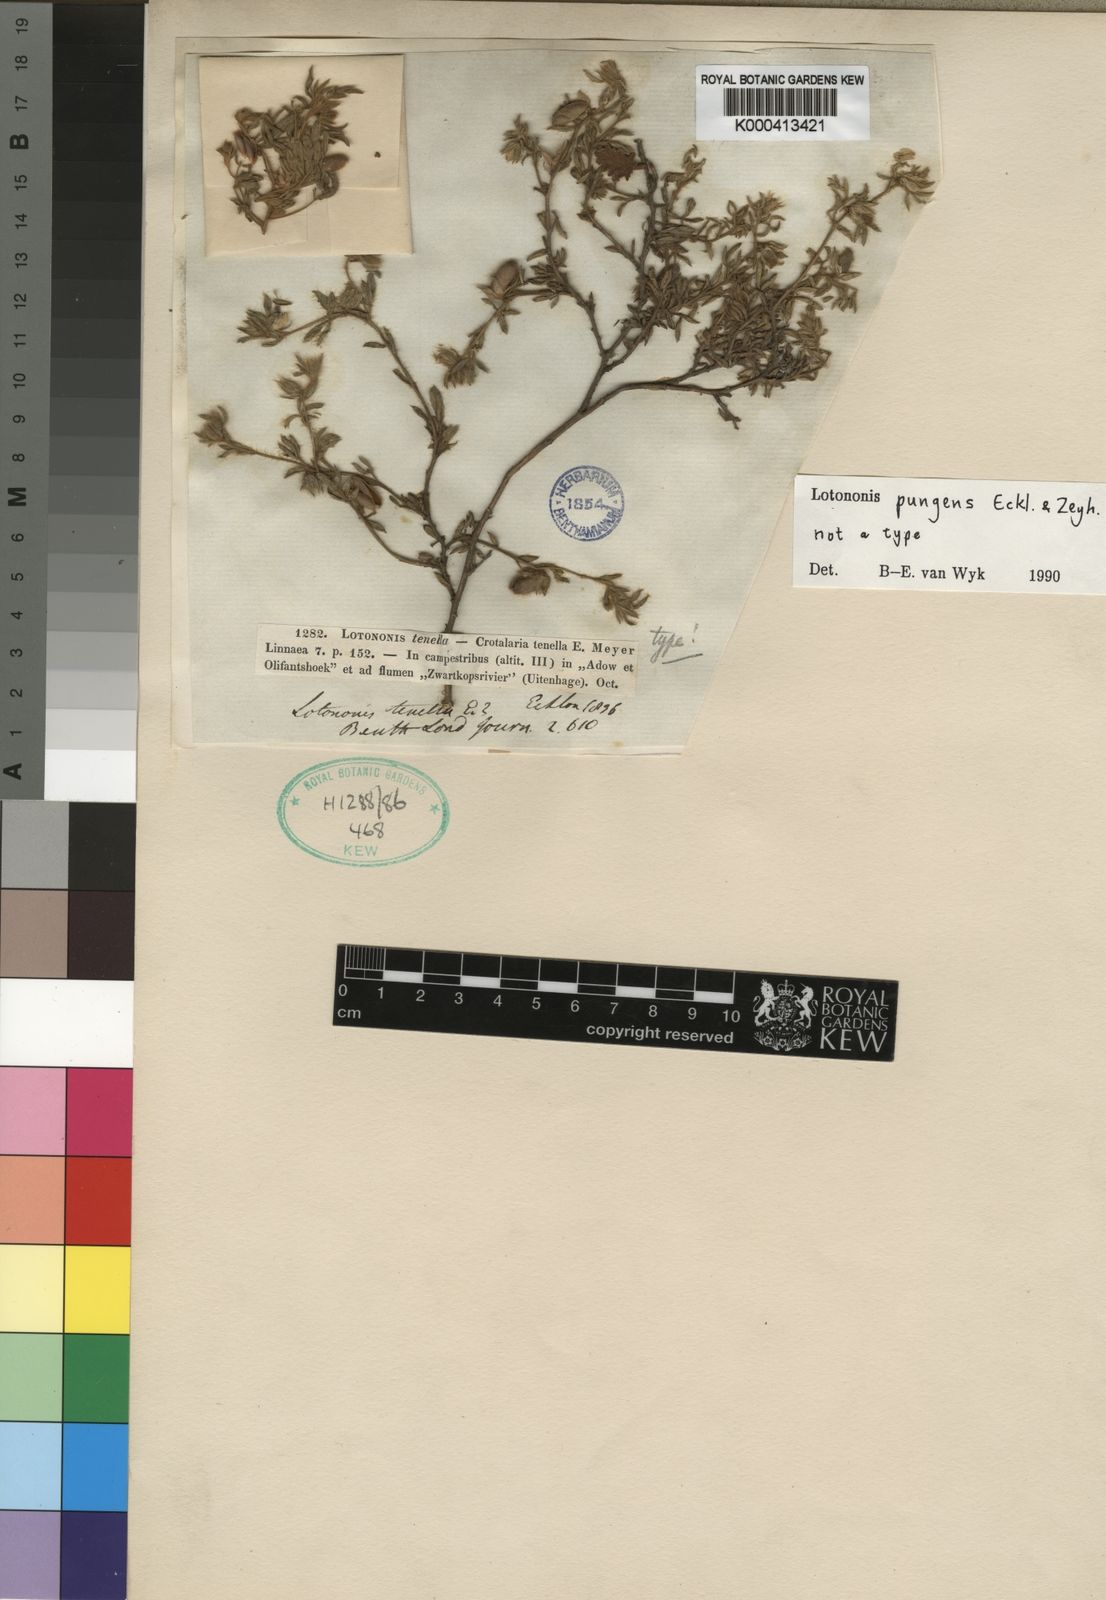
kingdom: Plantae
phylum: Tracheophyta
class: Magnoliopsida
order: Fabales
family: Fabaceae
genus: Lotononis
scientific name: Lotononis pungens
